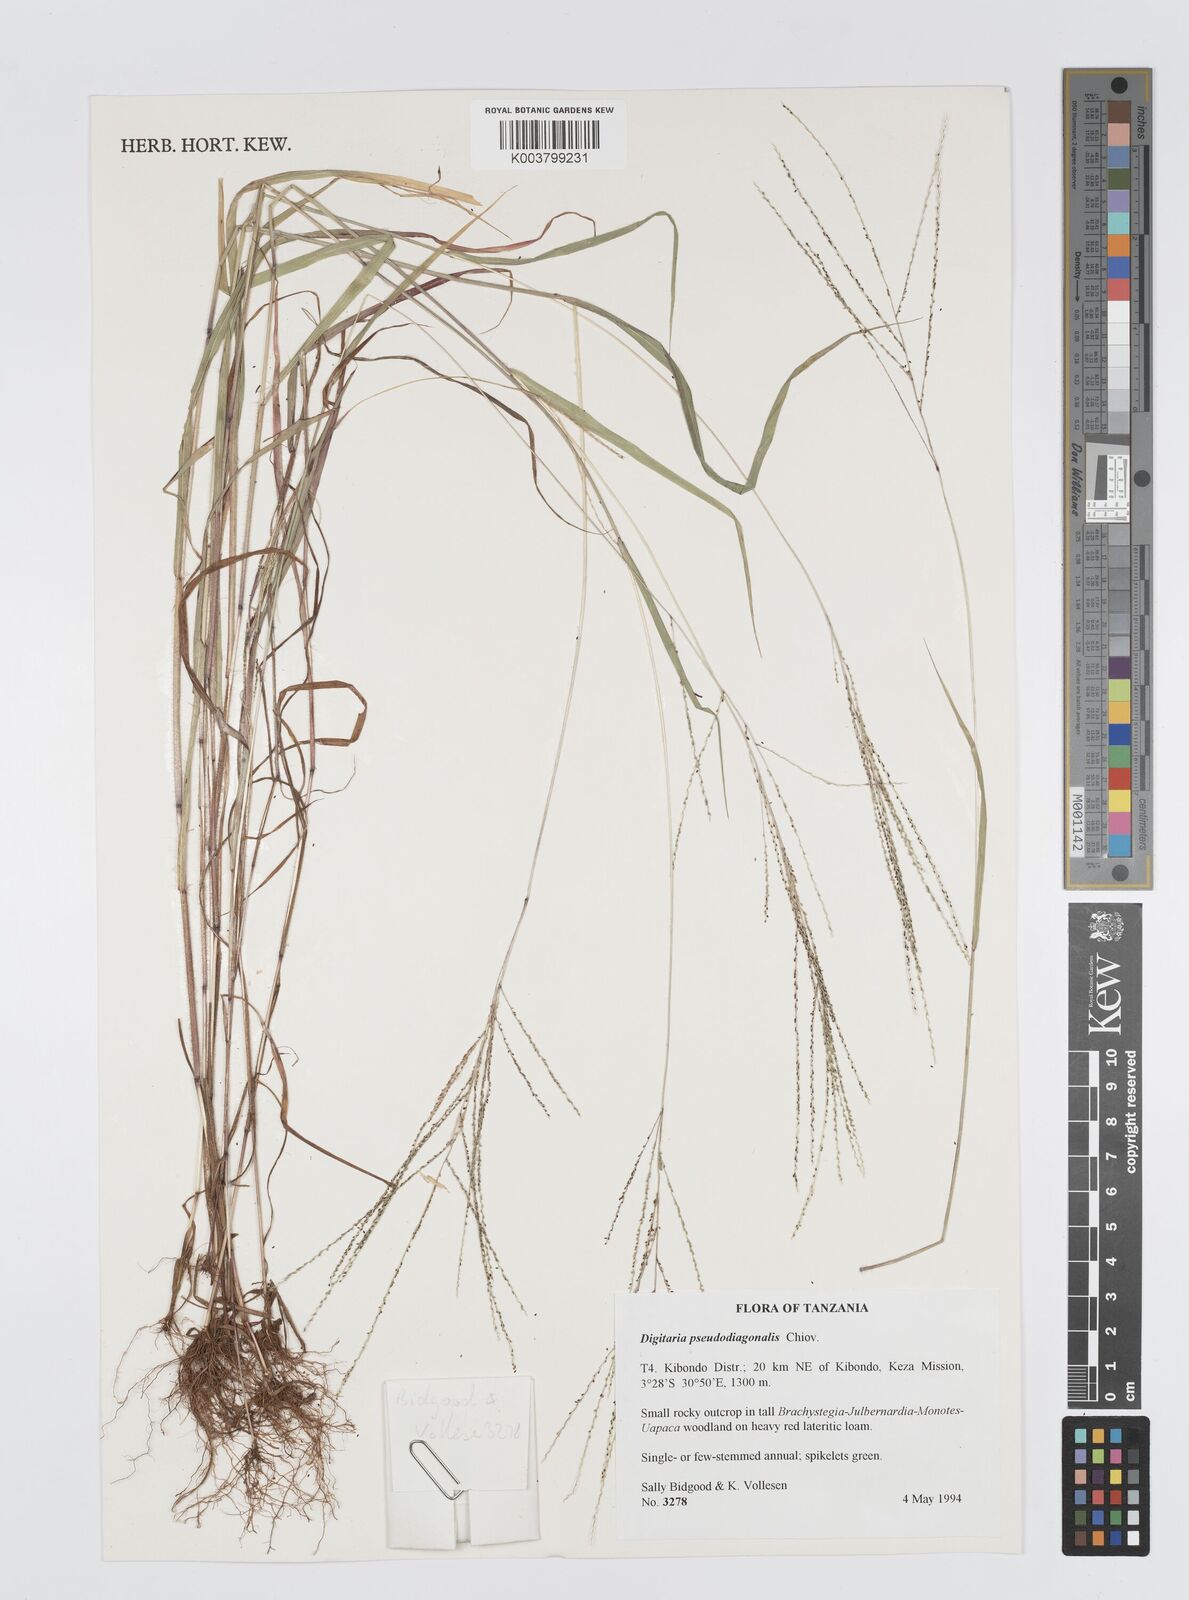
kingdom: Plantae
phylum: Tracheophyta
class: Liliopsida
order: Poales
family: Poaceae
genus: Digitaria
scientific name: Digitaria pseudodiagonalis
